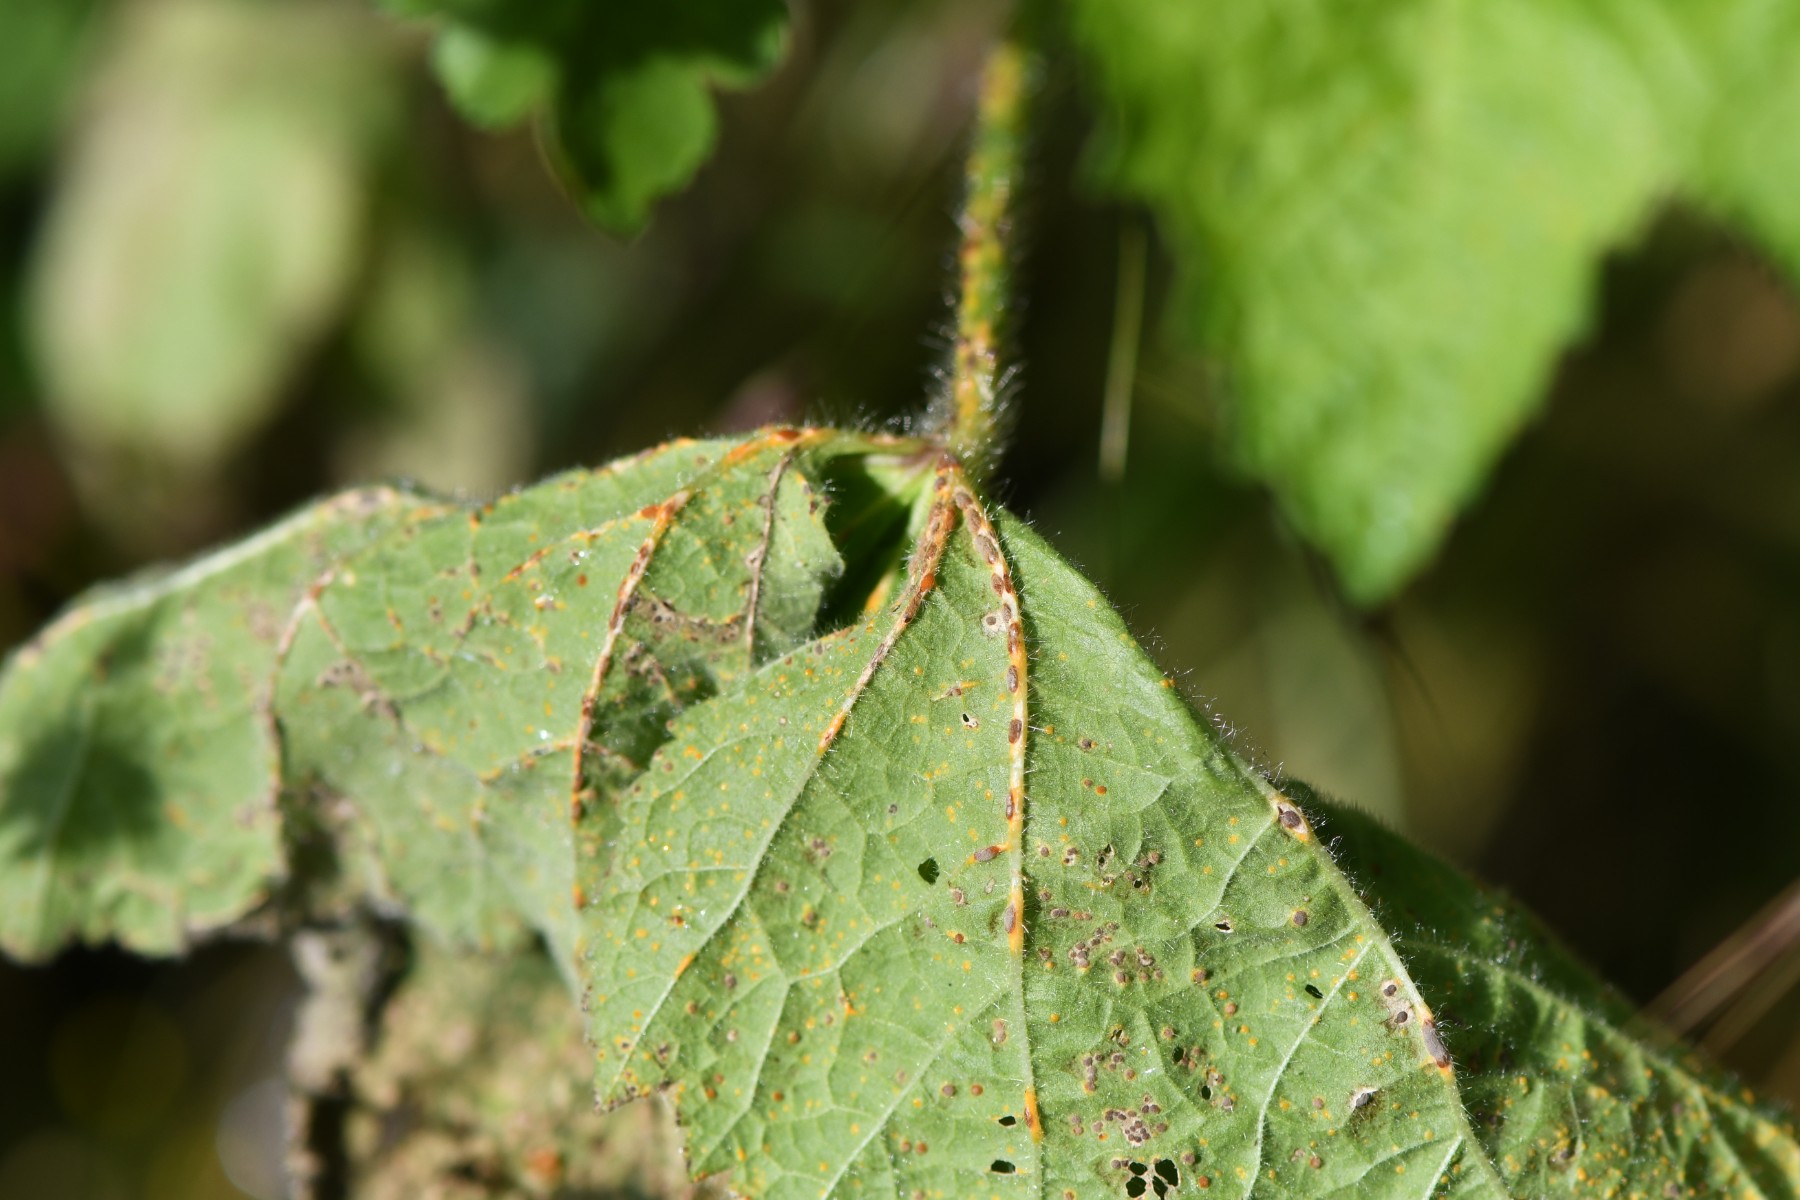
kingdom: Fungi
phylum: Basidiomycota
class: Pucciniomycetes
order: Pucciniales
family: Pucciniaceae
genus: Puccinia
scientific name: Puccinia malvacearum
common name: stokrose-tvecellerust
